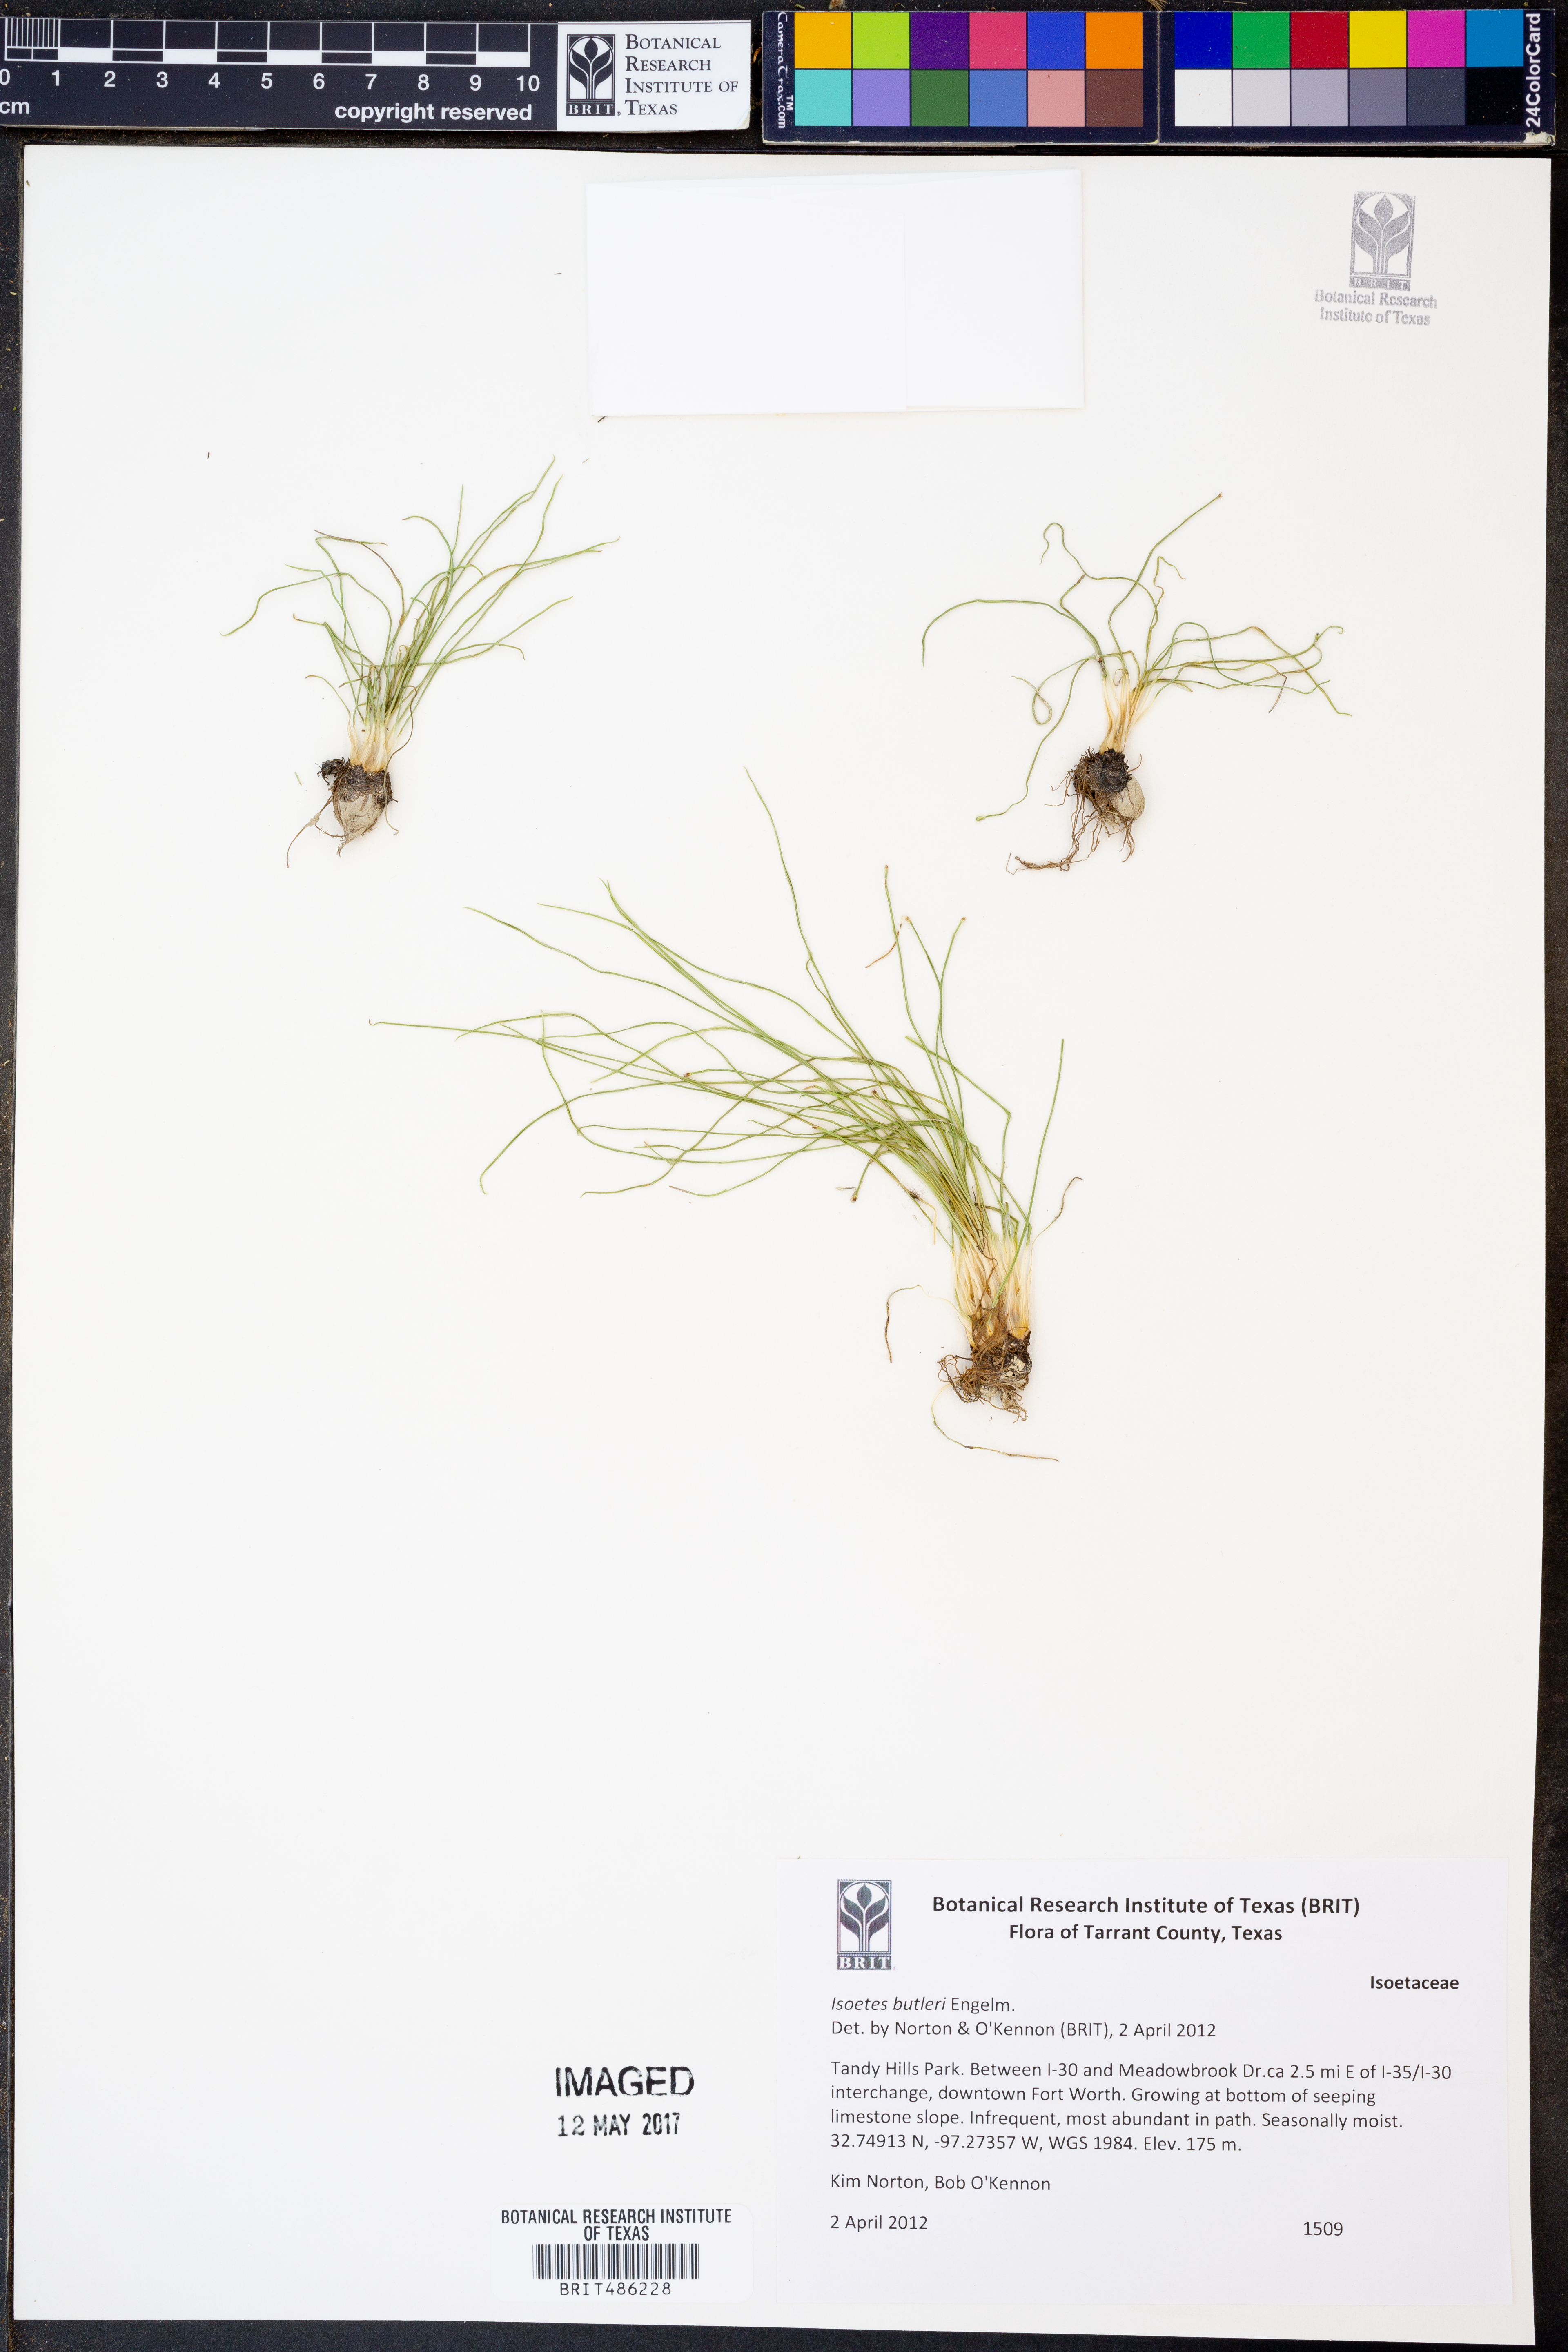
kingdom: Plantae
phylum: Tracheophyta
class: Lycopodiopsida
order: Isoetales
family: Isoetaceae
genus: Isoetes
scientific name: Isoetes butleri
